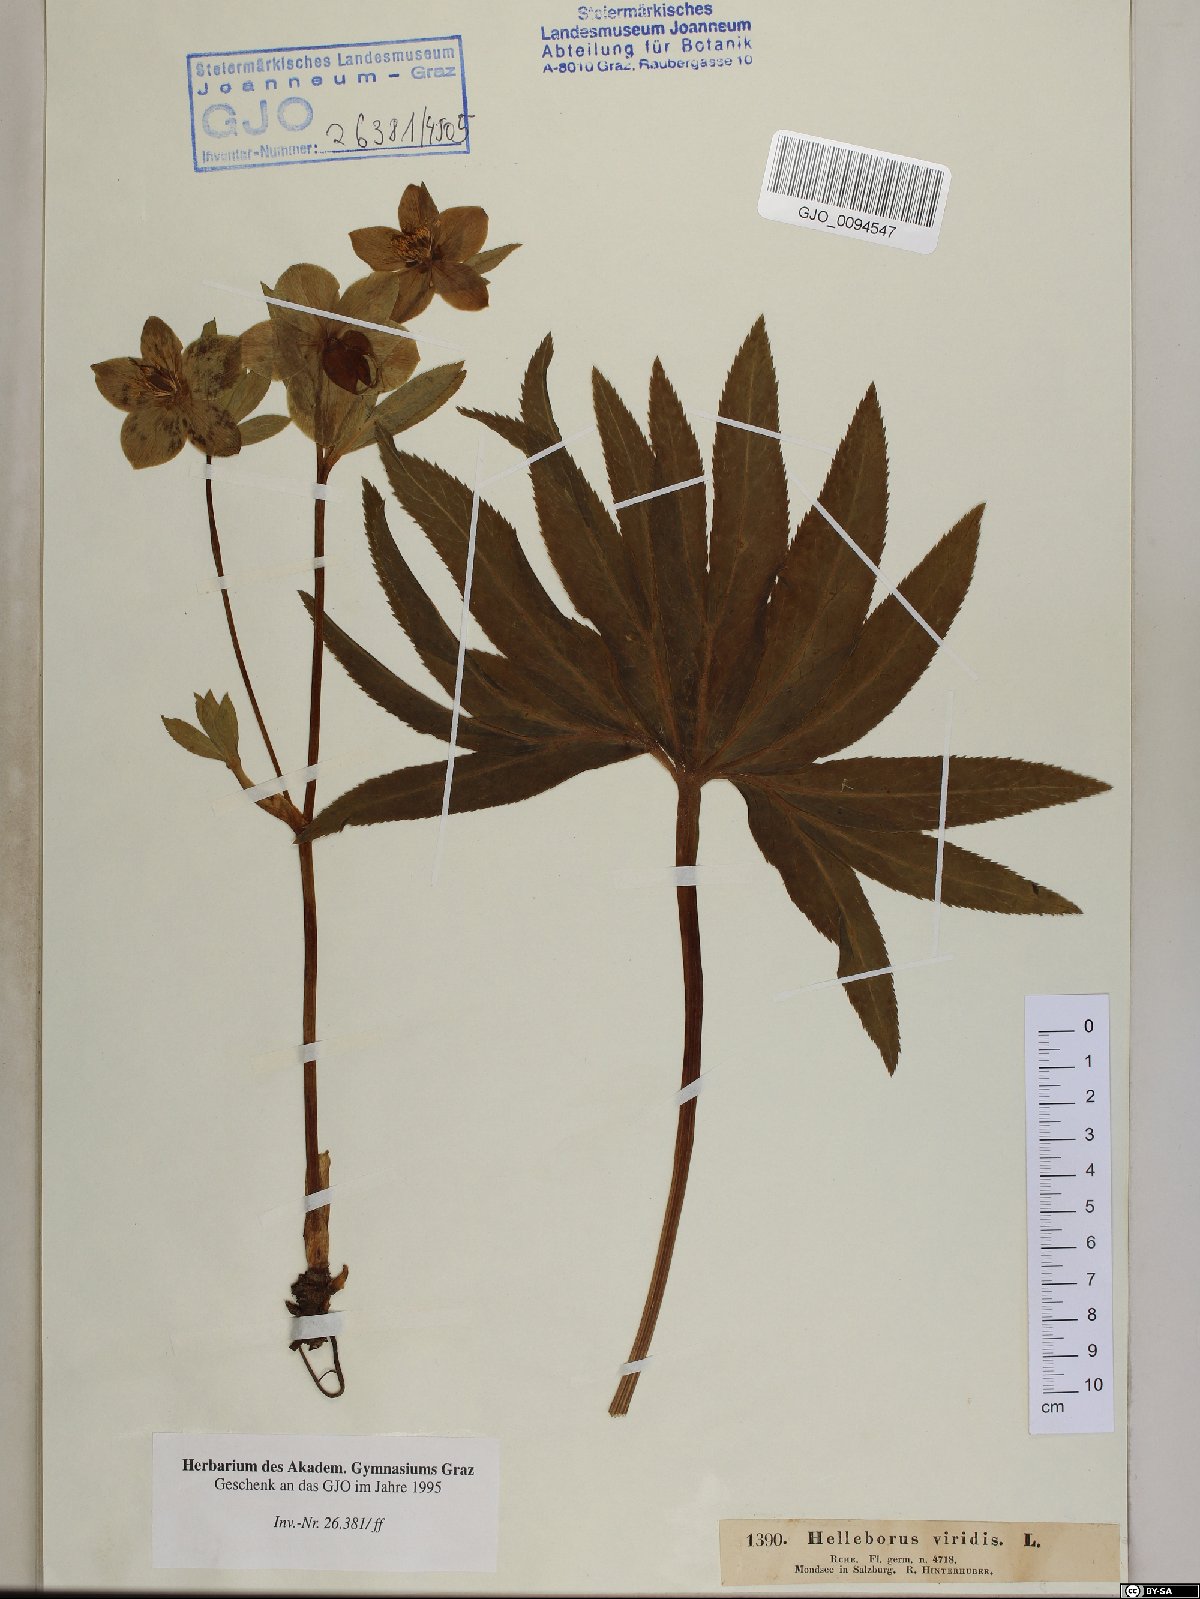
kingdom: Plantae
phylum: Tracheophyta
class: Magnoliopsida
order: Ranunculales
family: Ranunculaceae
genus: Helleborus
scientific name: Helleborus viridis
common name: Green hellebore
